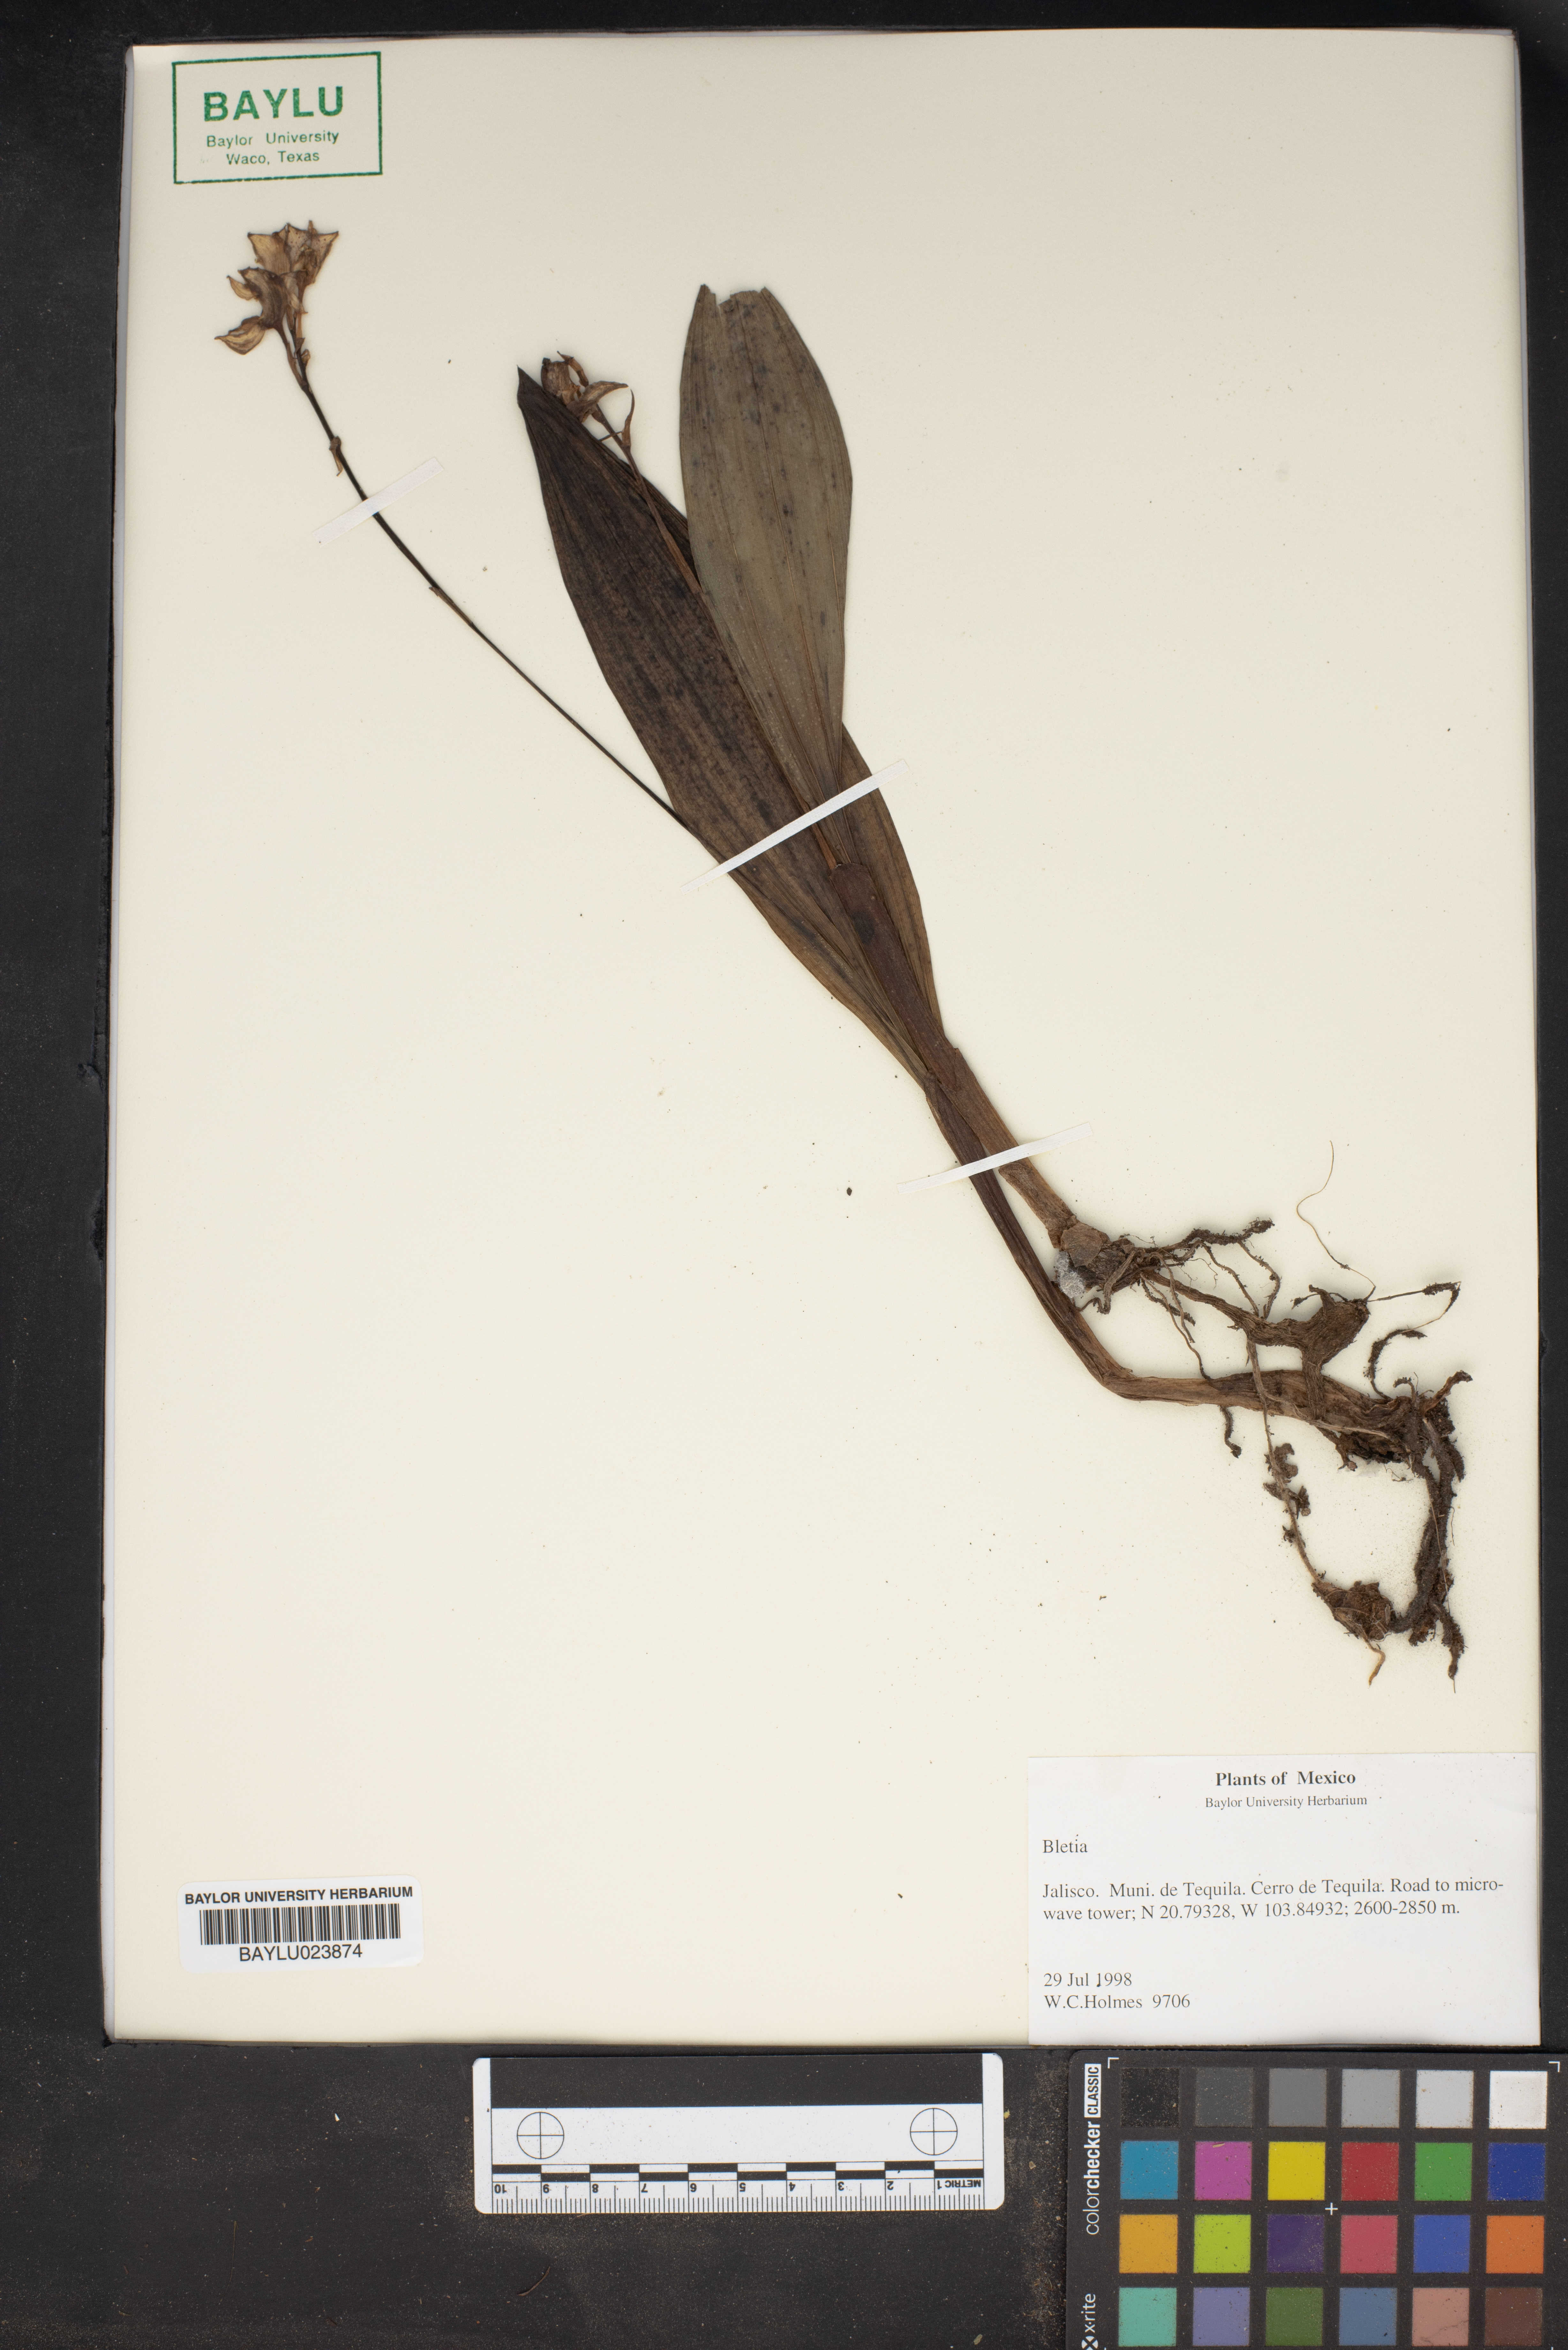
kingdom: Plantae
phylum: Tracheophyta
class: Liliopsida
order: Asparagales
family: Orchidaceae
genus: Bletia
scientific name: Bletia
